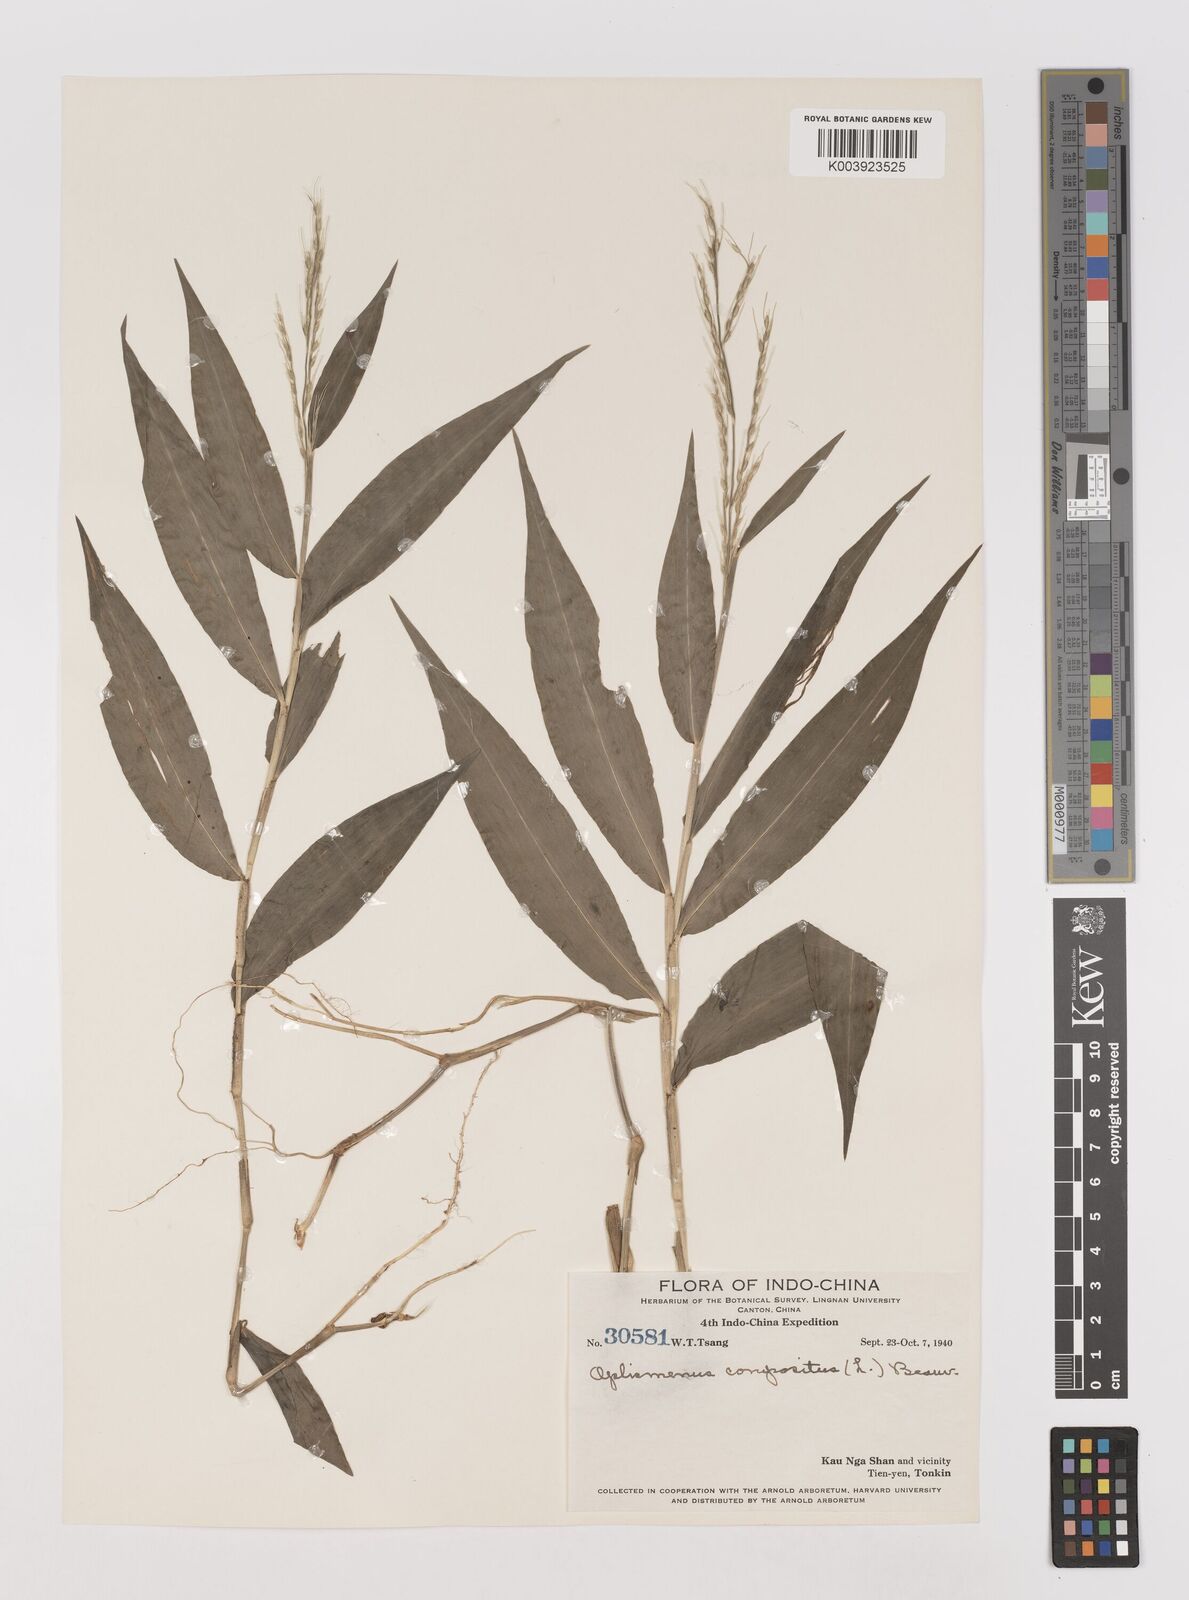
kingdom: Plantae
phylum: Tracheophyta
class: Liliopsida
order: Poales
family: Poaceae
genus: Oplismenus
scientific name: Oplismenus compositus
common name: Running mountain grass
